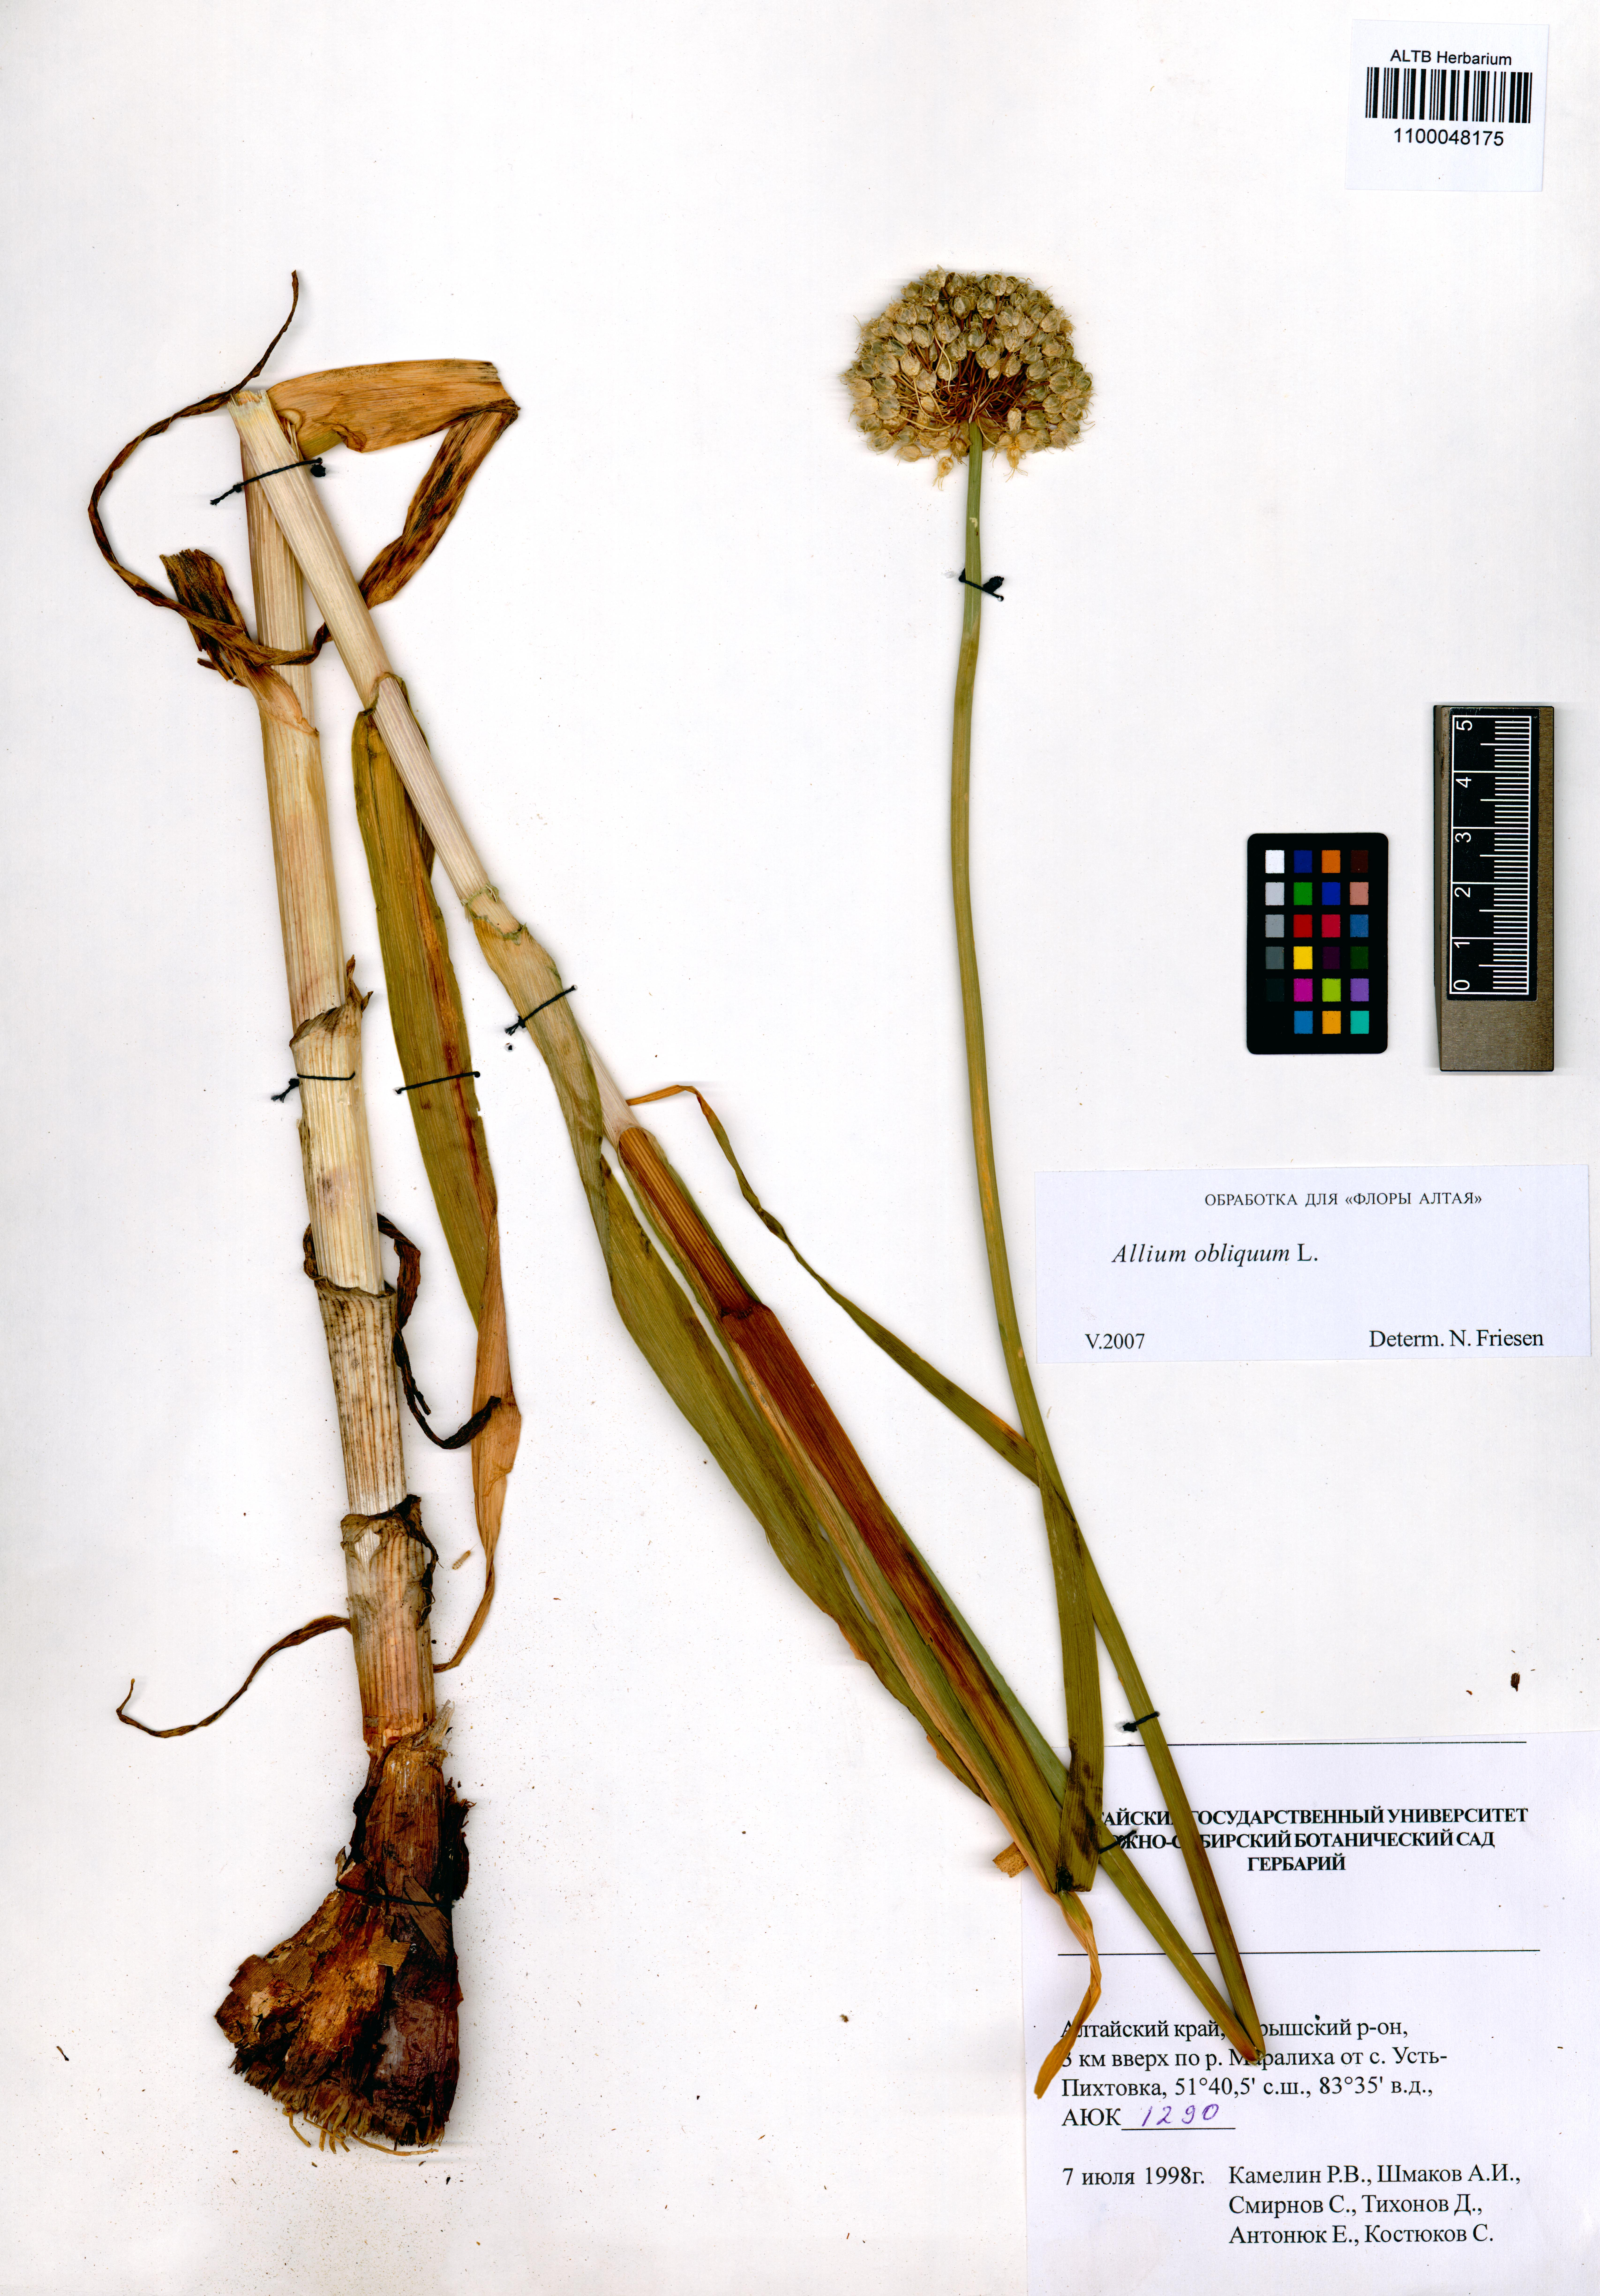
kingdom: Plantae
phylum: Tracheophyta
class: Liliopsida
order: Asparagales
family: Amaryllidaceae
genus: Allium
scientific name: Allium obliquum
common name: Oblique onion
